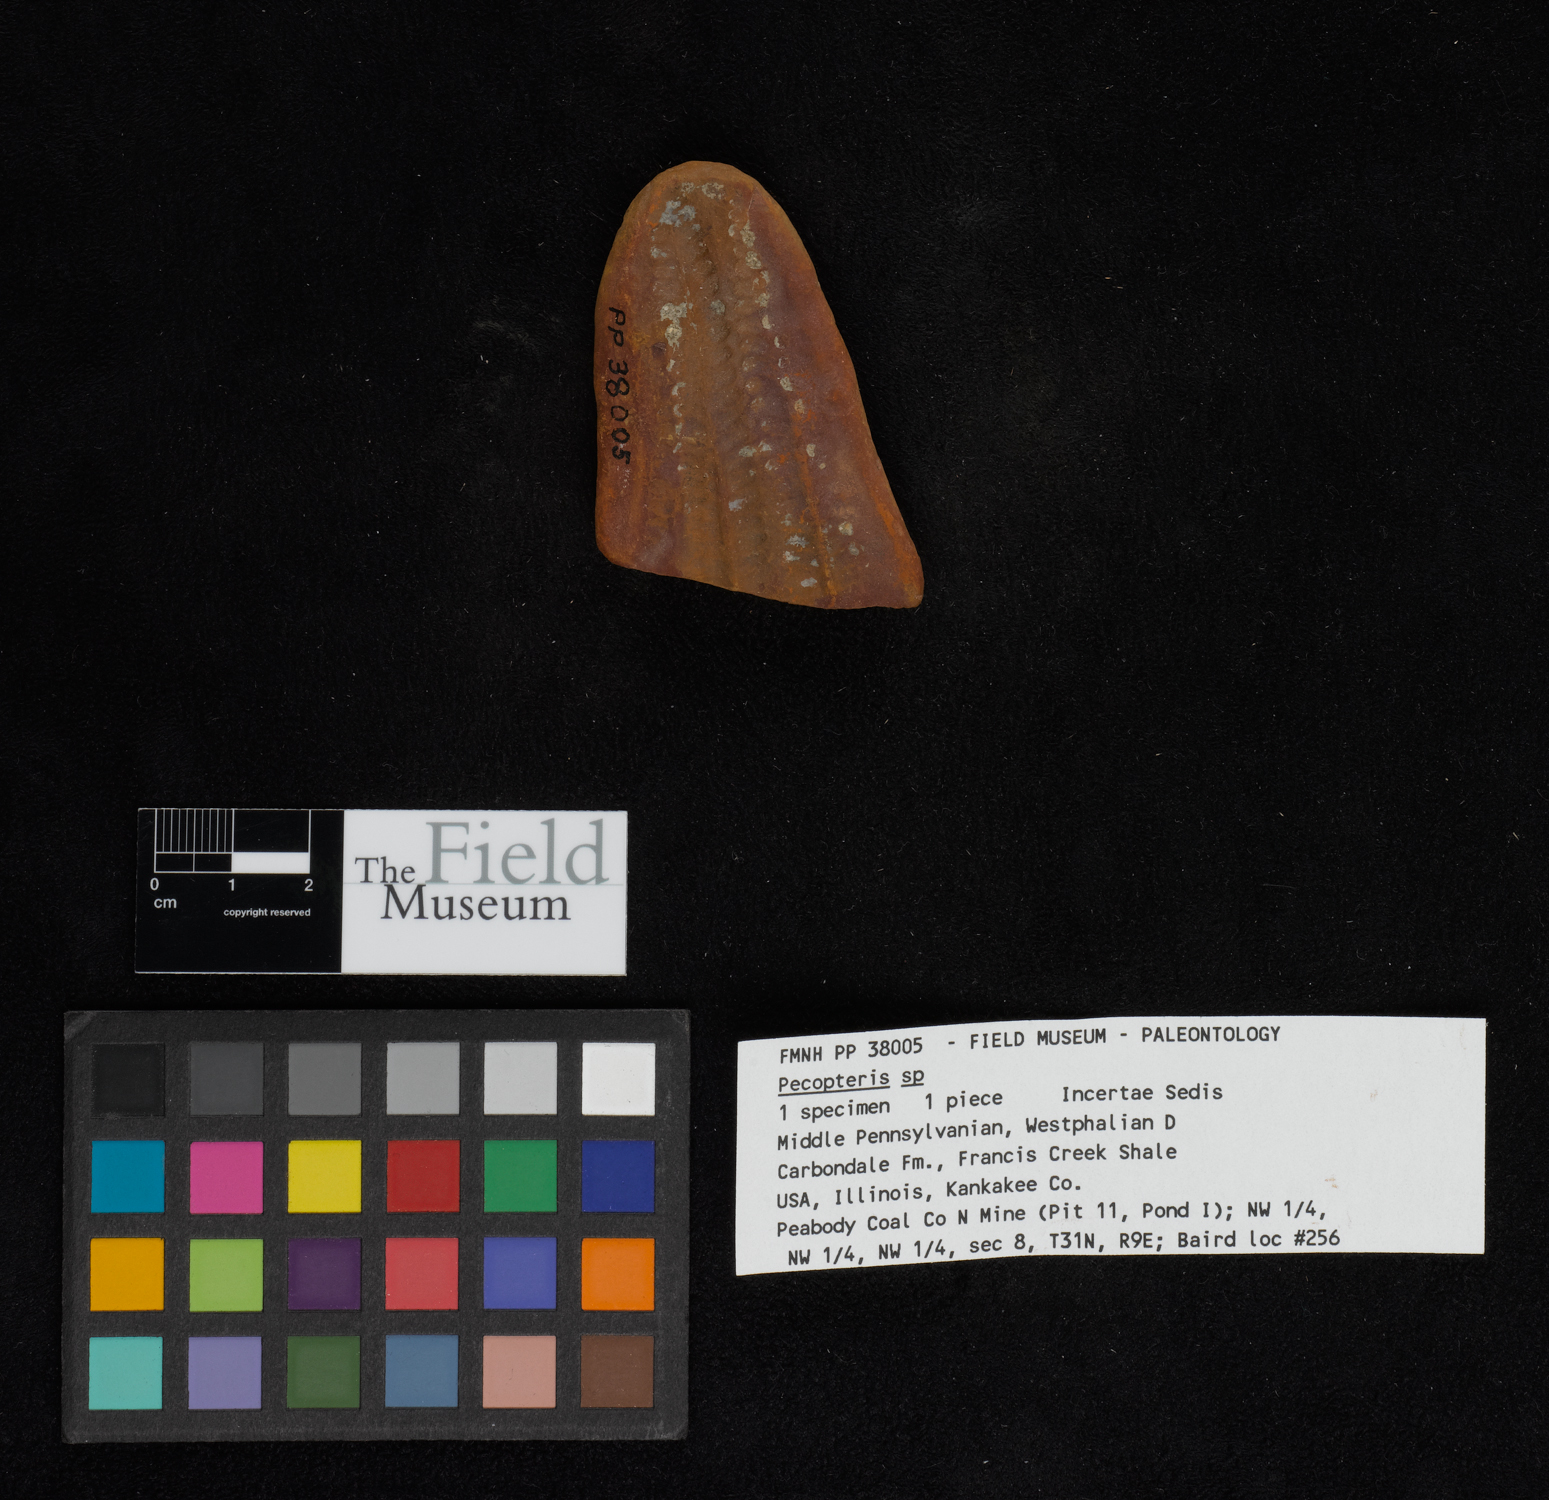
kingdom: Plantae
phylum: Tracheophyta
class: Polypodiopsida
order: Marattiales
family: Asterothecaceae
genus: Pecopteris
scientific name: Pecopteris
